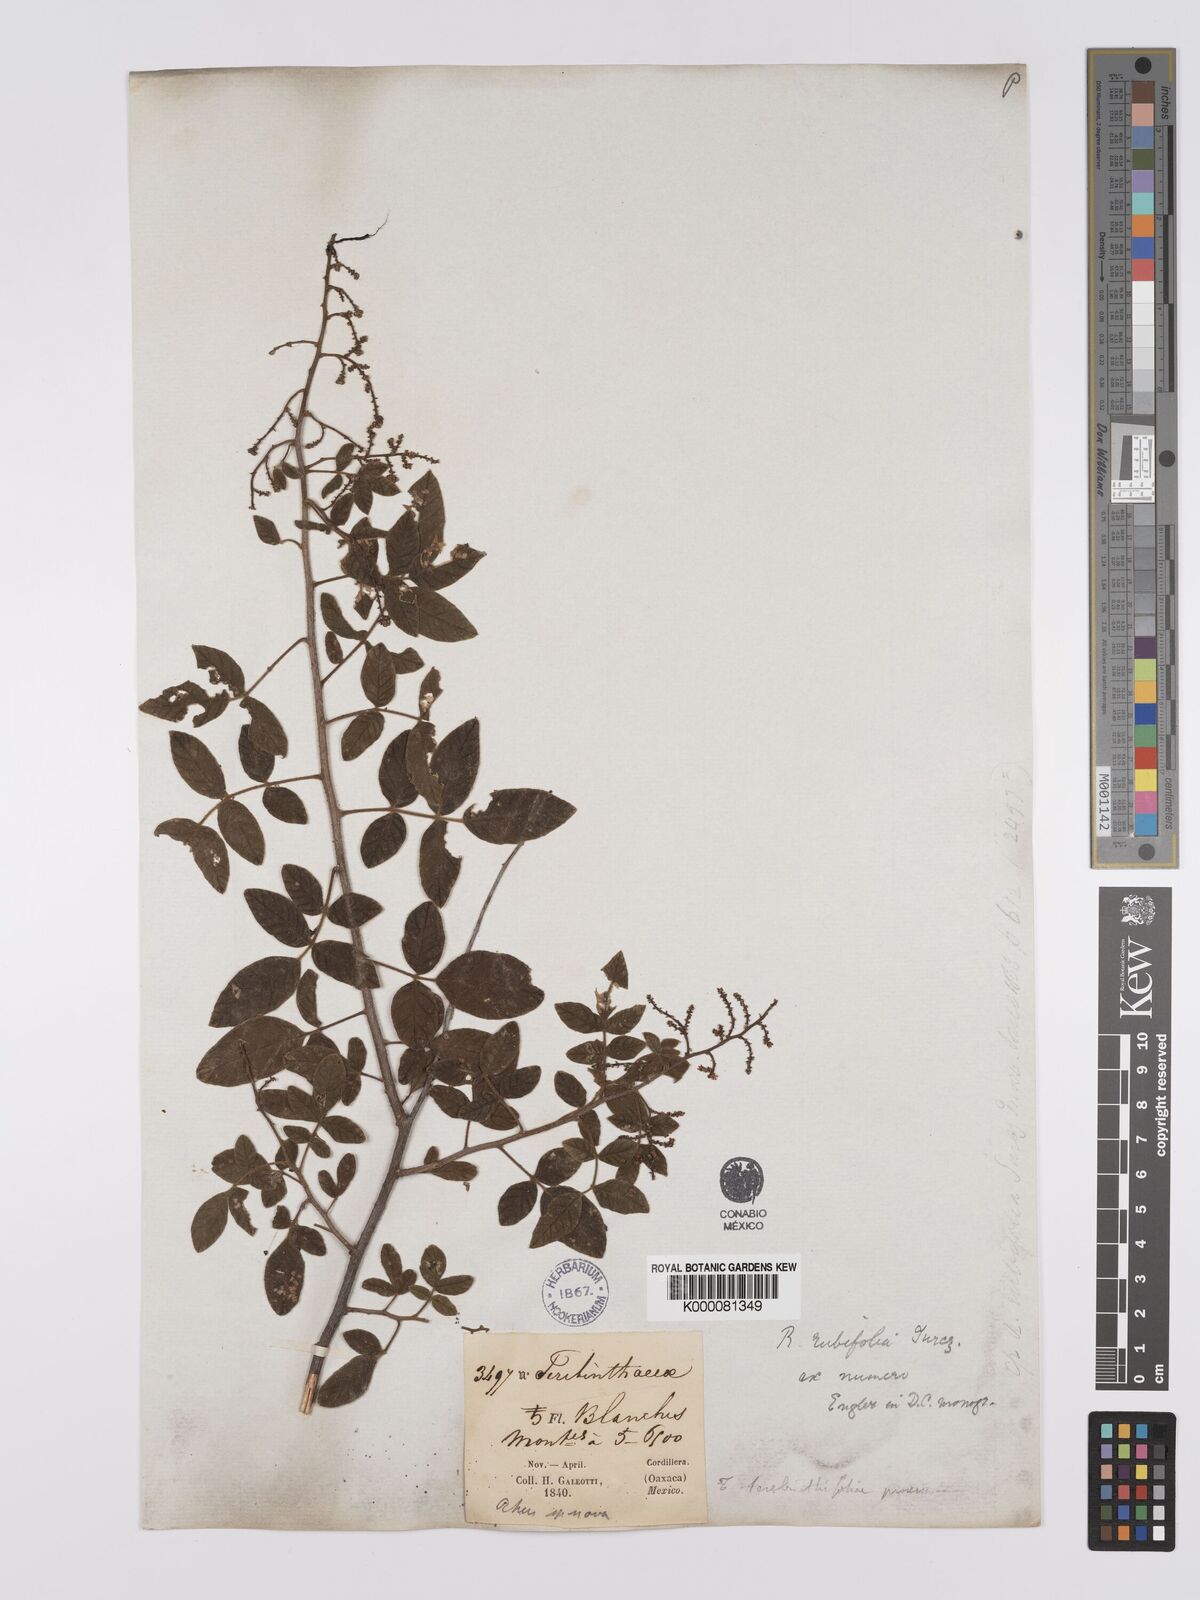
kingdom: Plantae
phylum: Tracheophyta
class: Magnoliopsida
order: Sapindales
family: Anacardiaceae
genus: Rhus
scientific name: Rhus rubifolia
